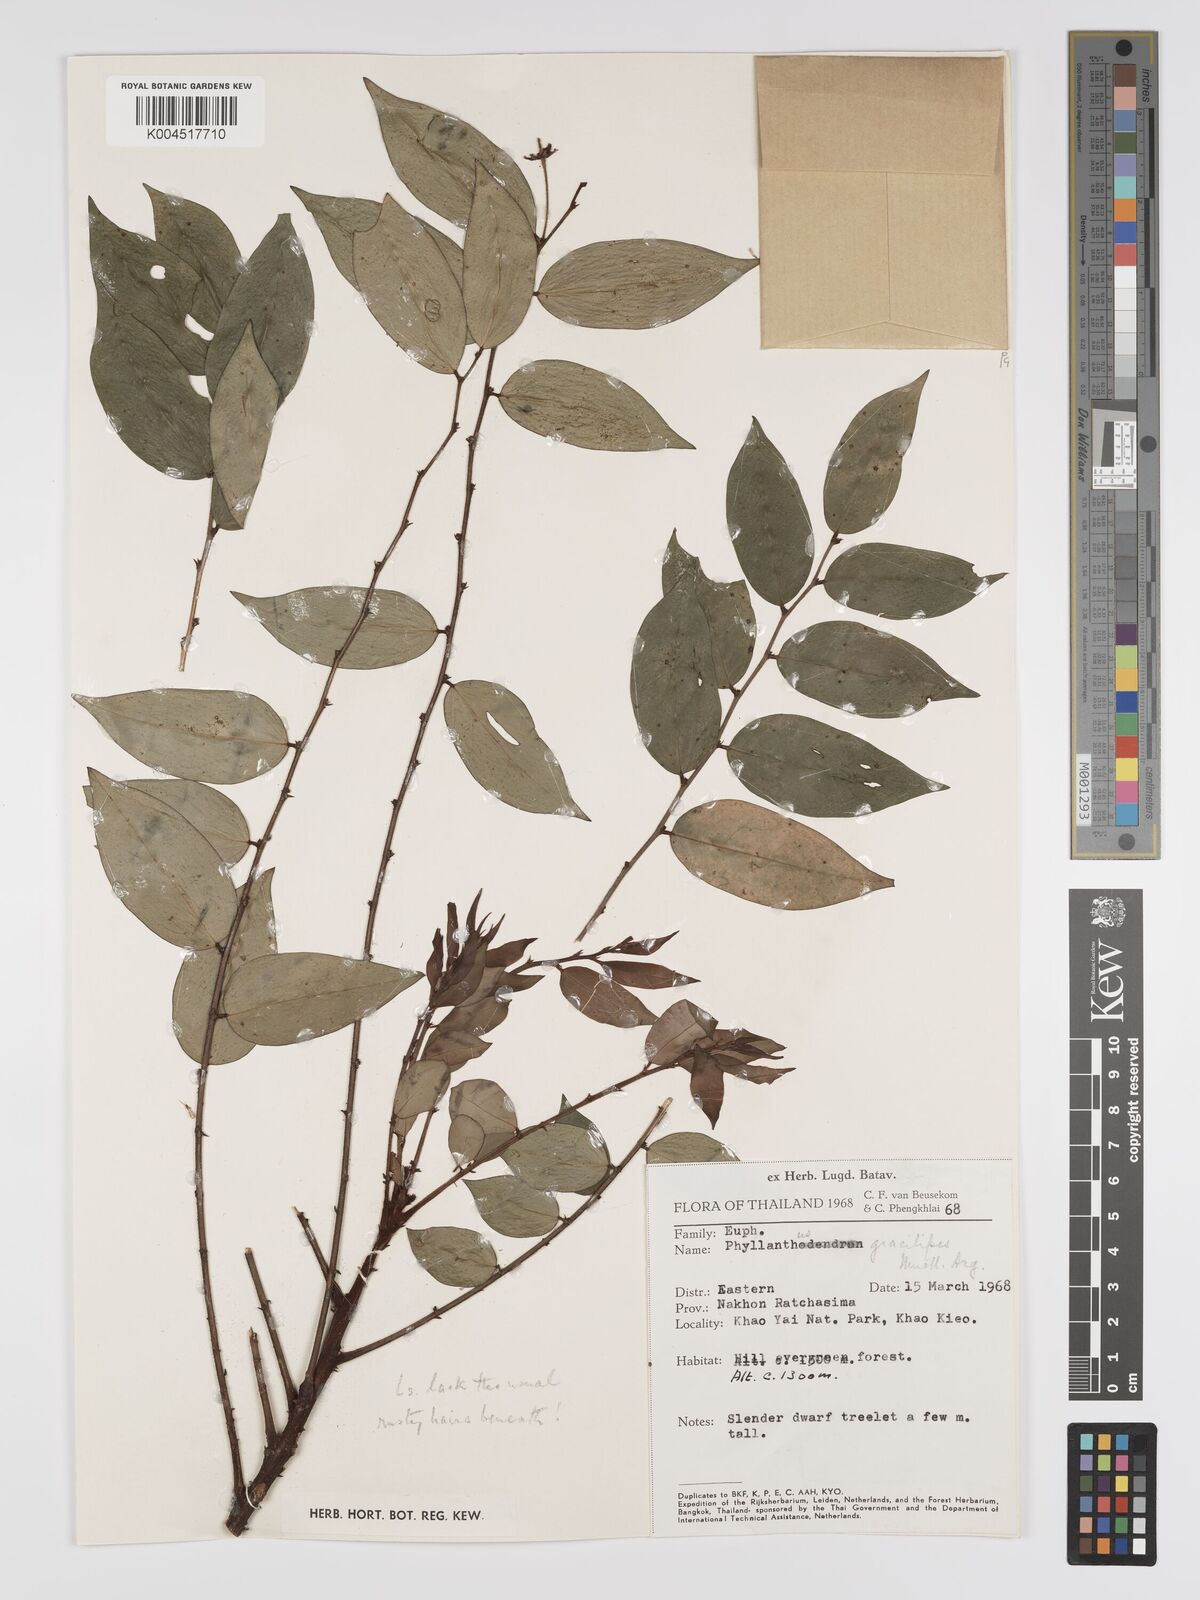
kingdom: Plantae
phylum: Tracheophyta
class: Magnoliopsida
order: Malpighiales
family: Phyllanthaceae
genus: Phyllanthus
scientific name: Phyllanthus
